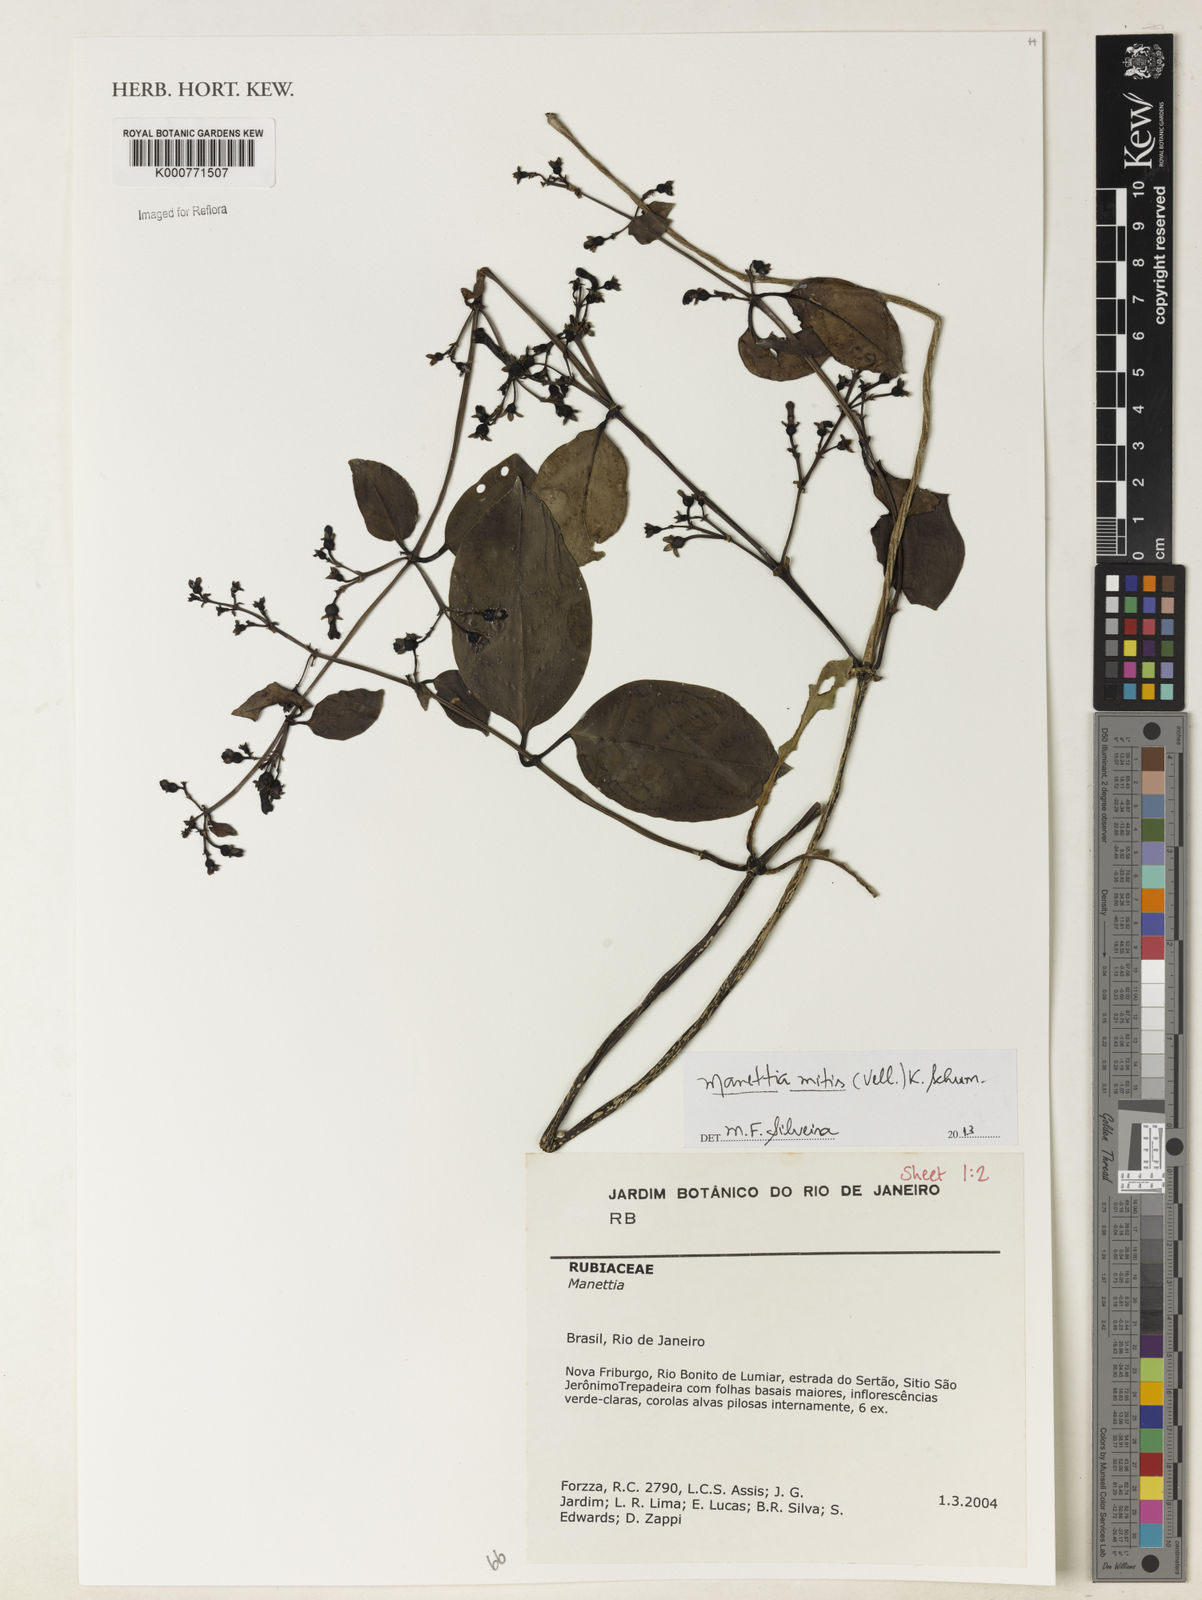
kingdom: Plantae
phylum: Tracheophyta
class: Magnoliopsida
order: Gentianales
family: Rubiaceae
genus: Manettia
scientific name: Manettia mitis
